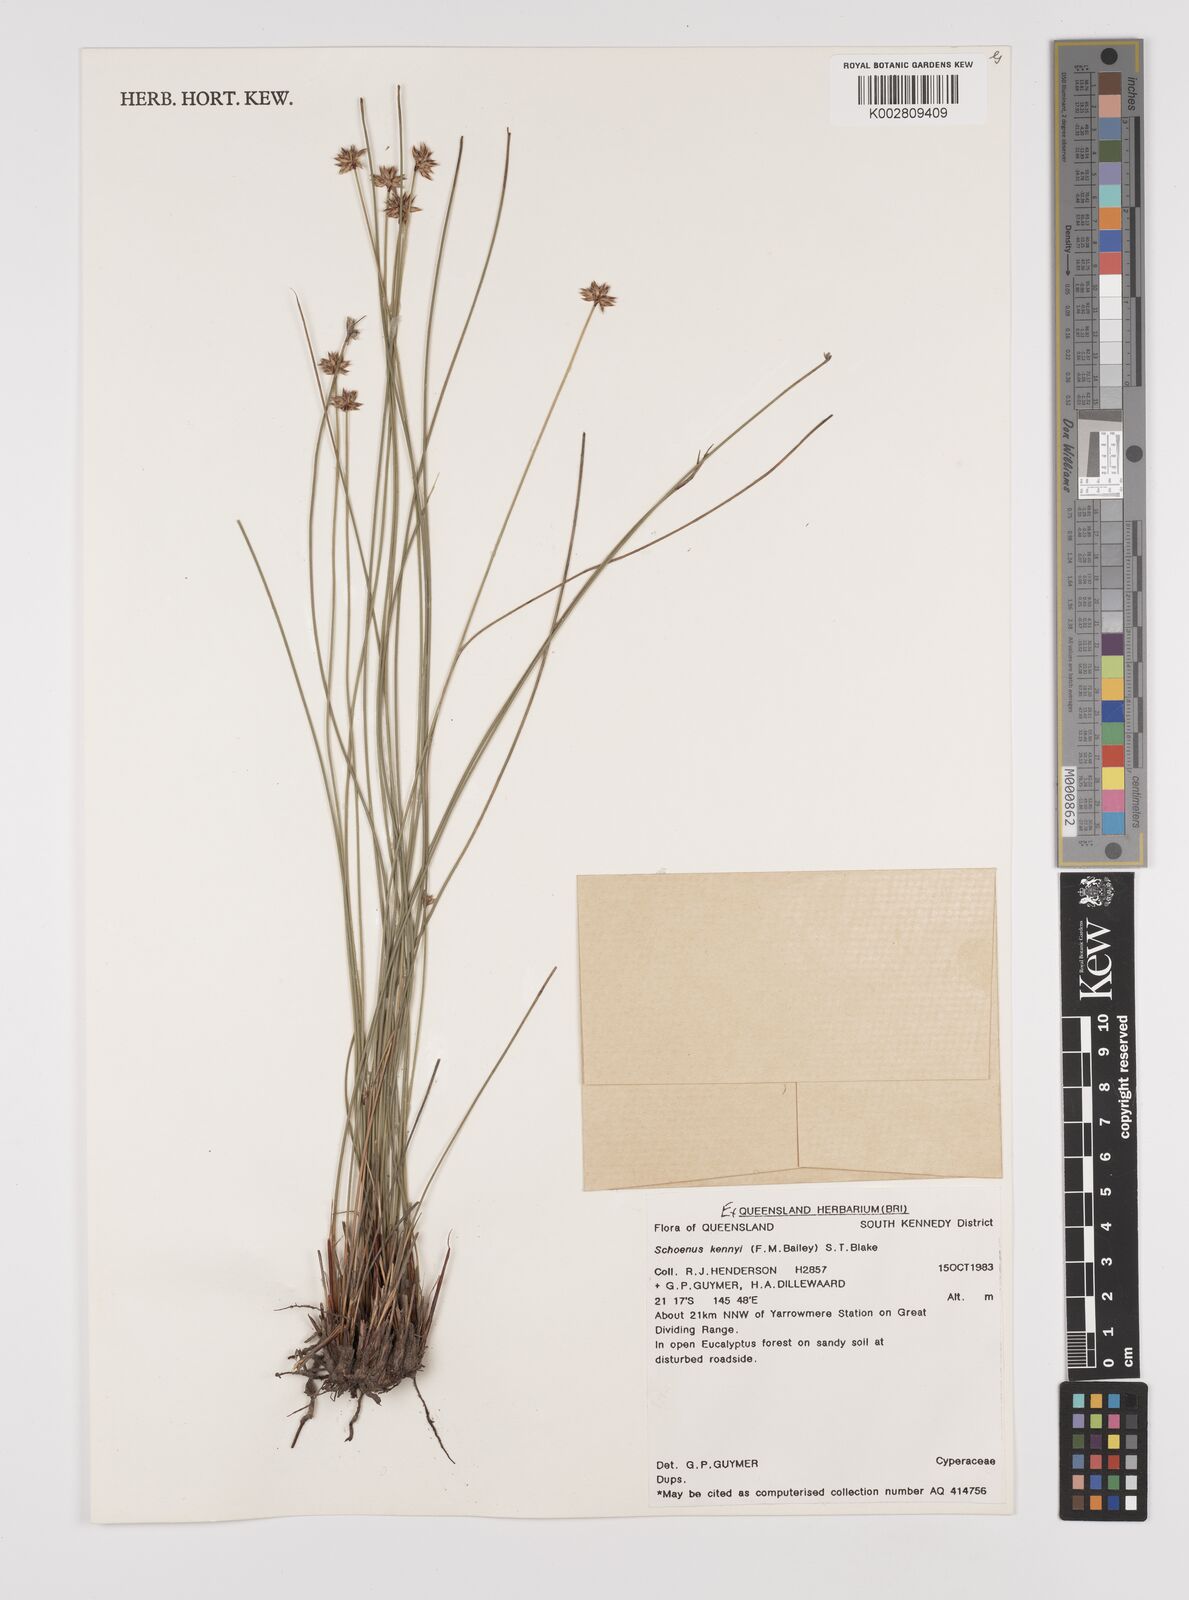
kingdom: Plantae
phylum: Tracheophyta
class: Liliopsida
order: Poales
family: Cyperaceae
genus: Schoenus
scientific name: Schoenus kennyi
